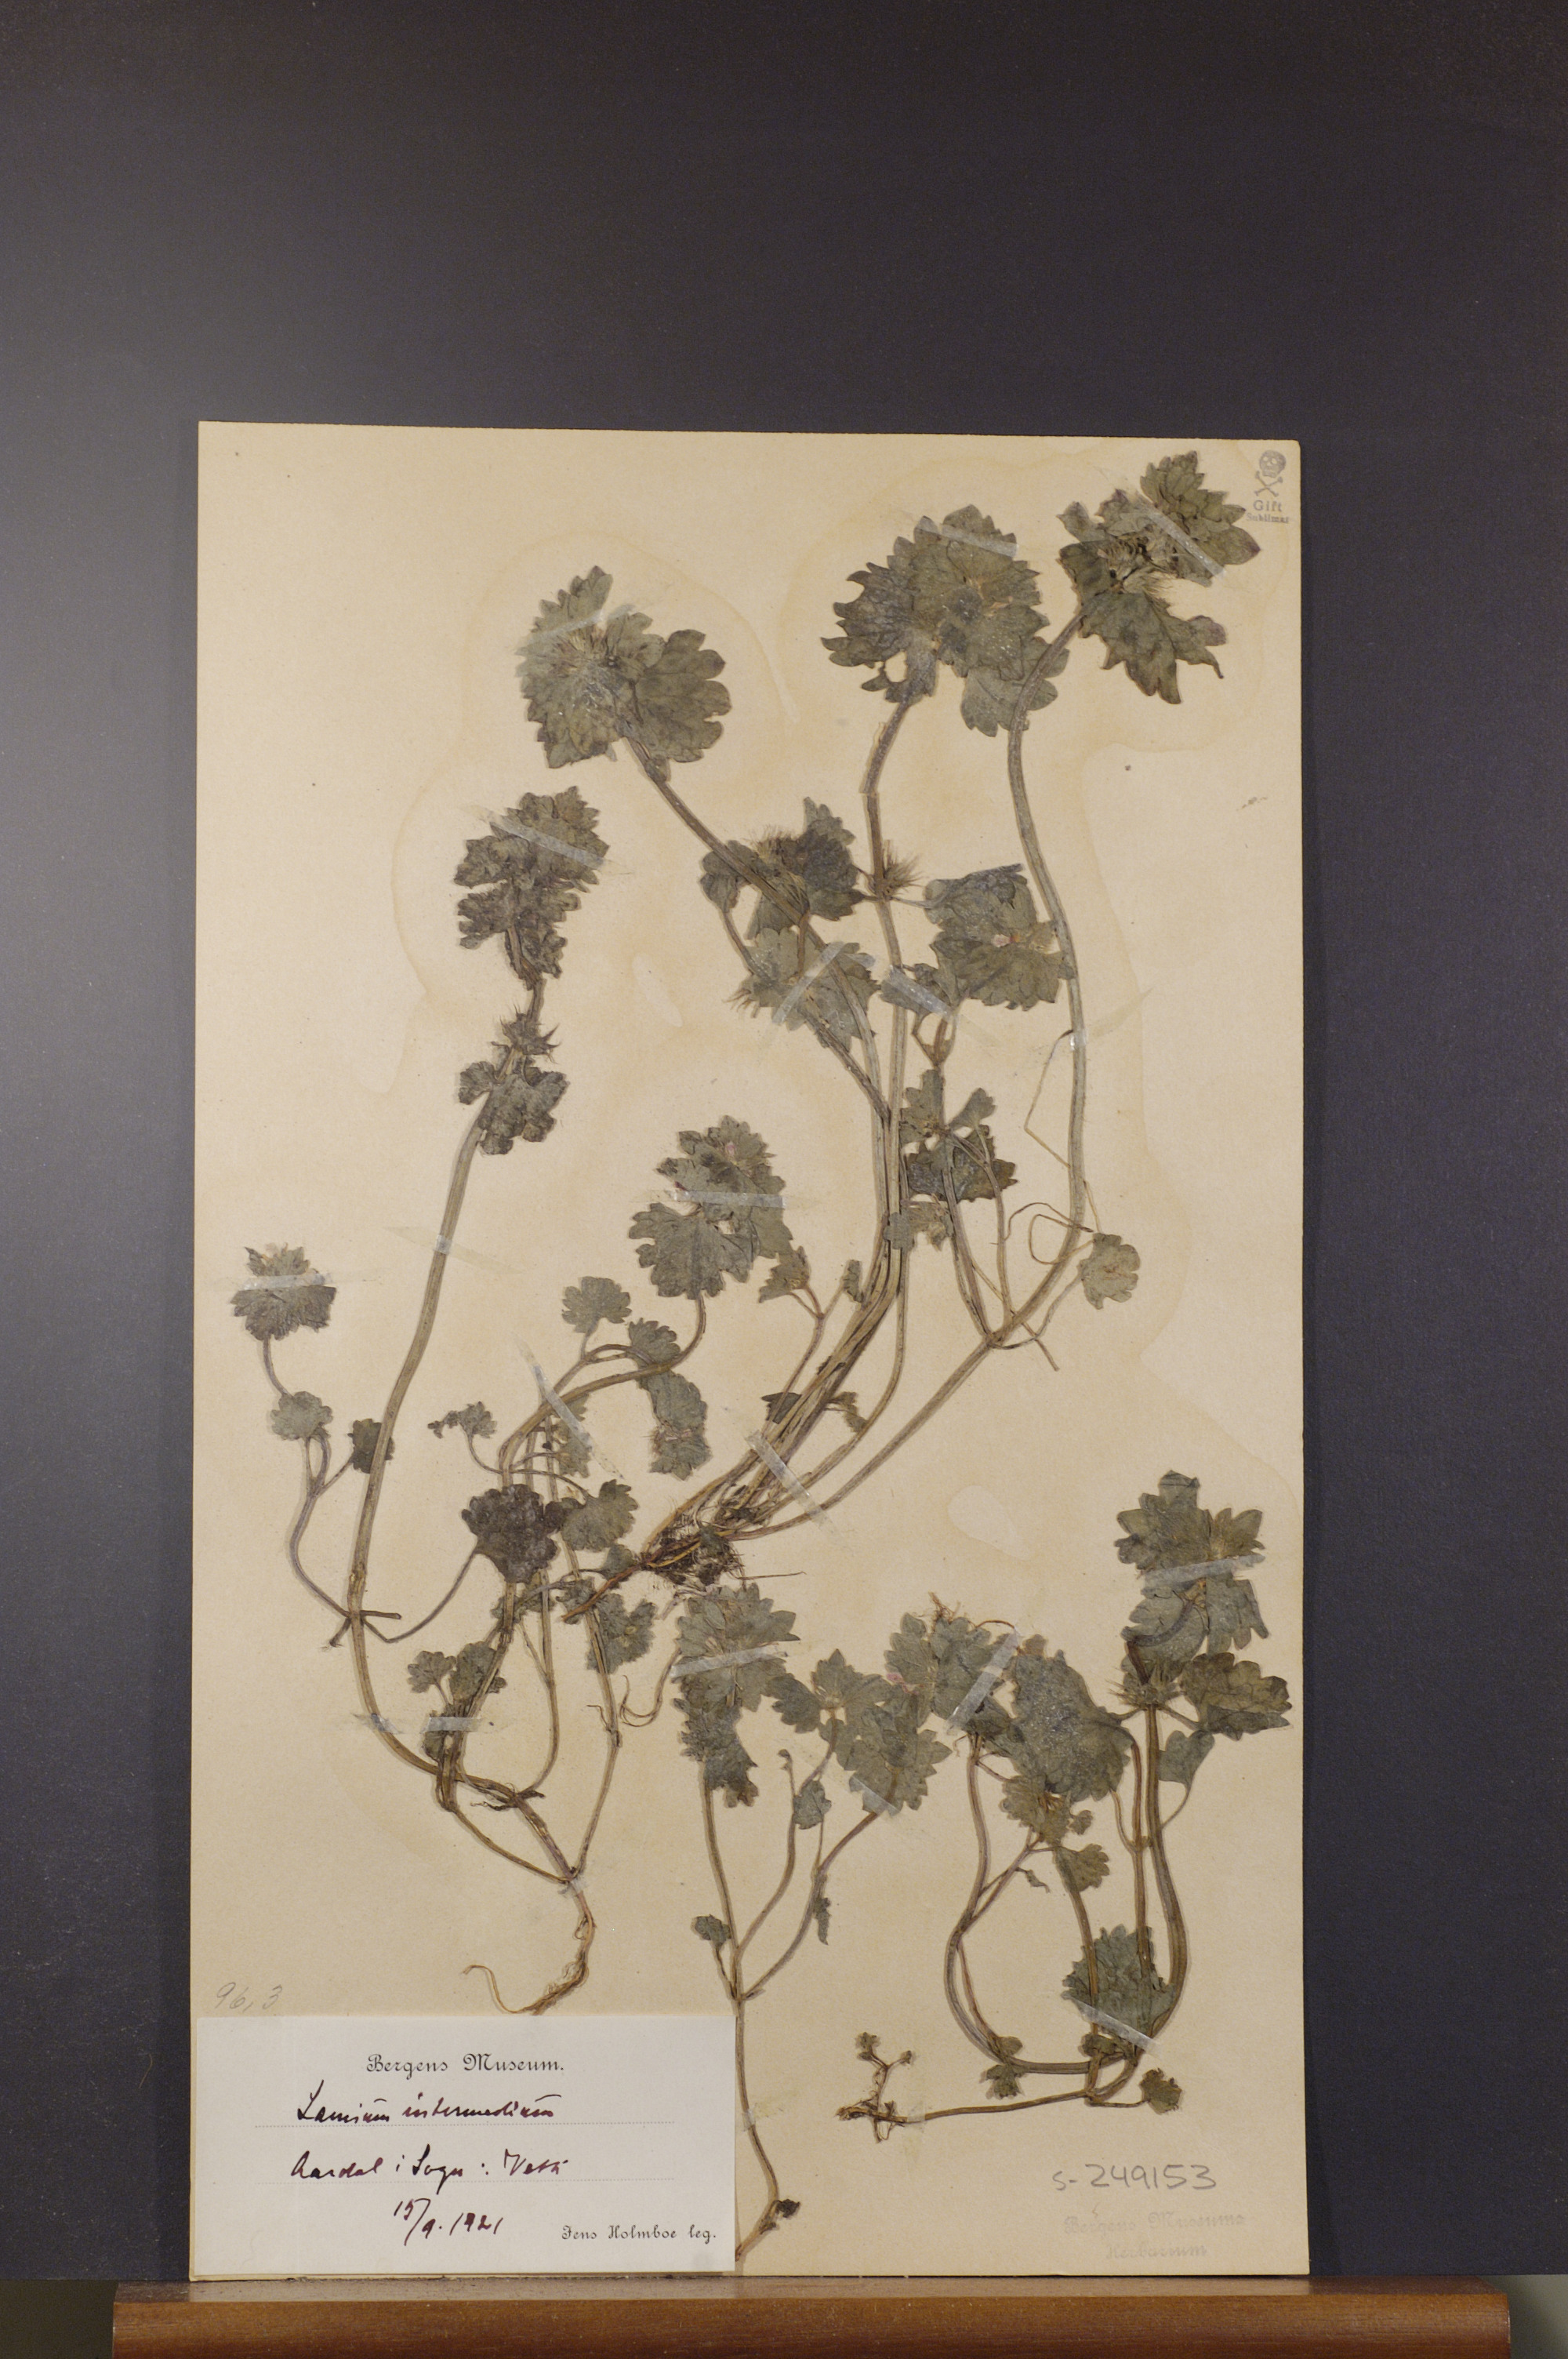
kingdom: Plantae
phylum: Tracheophyta
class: Magnoliopsida
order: Lamiales
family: Lamiaceae
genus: Lamium
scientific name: Lamium confertum
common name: Northern dead-nettle
